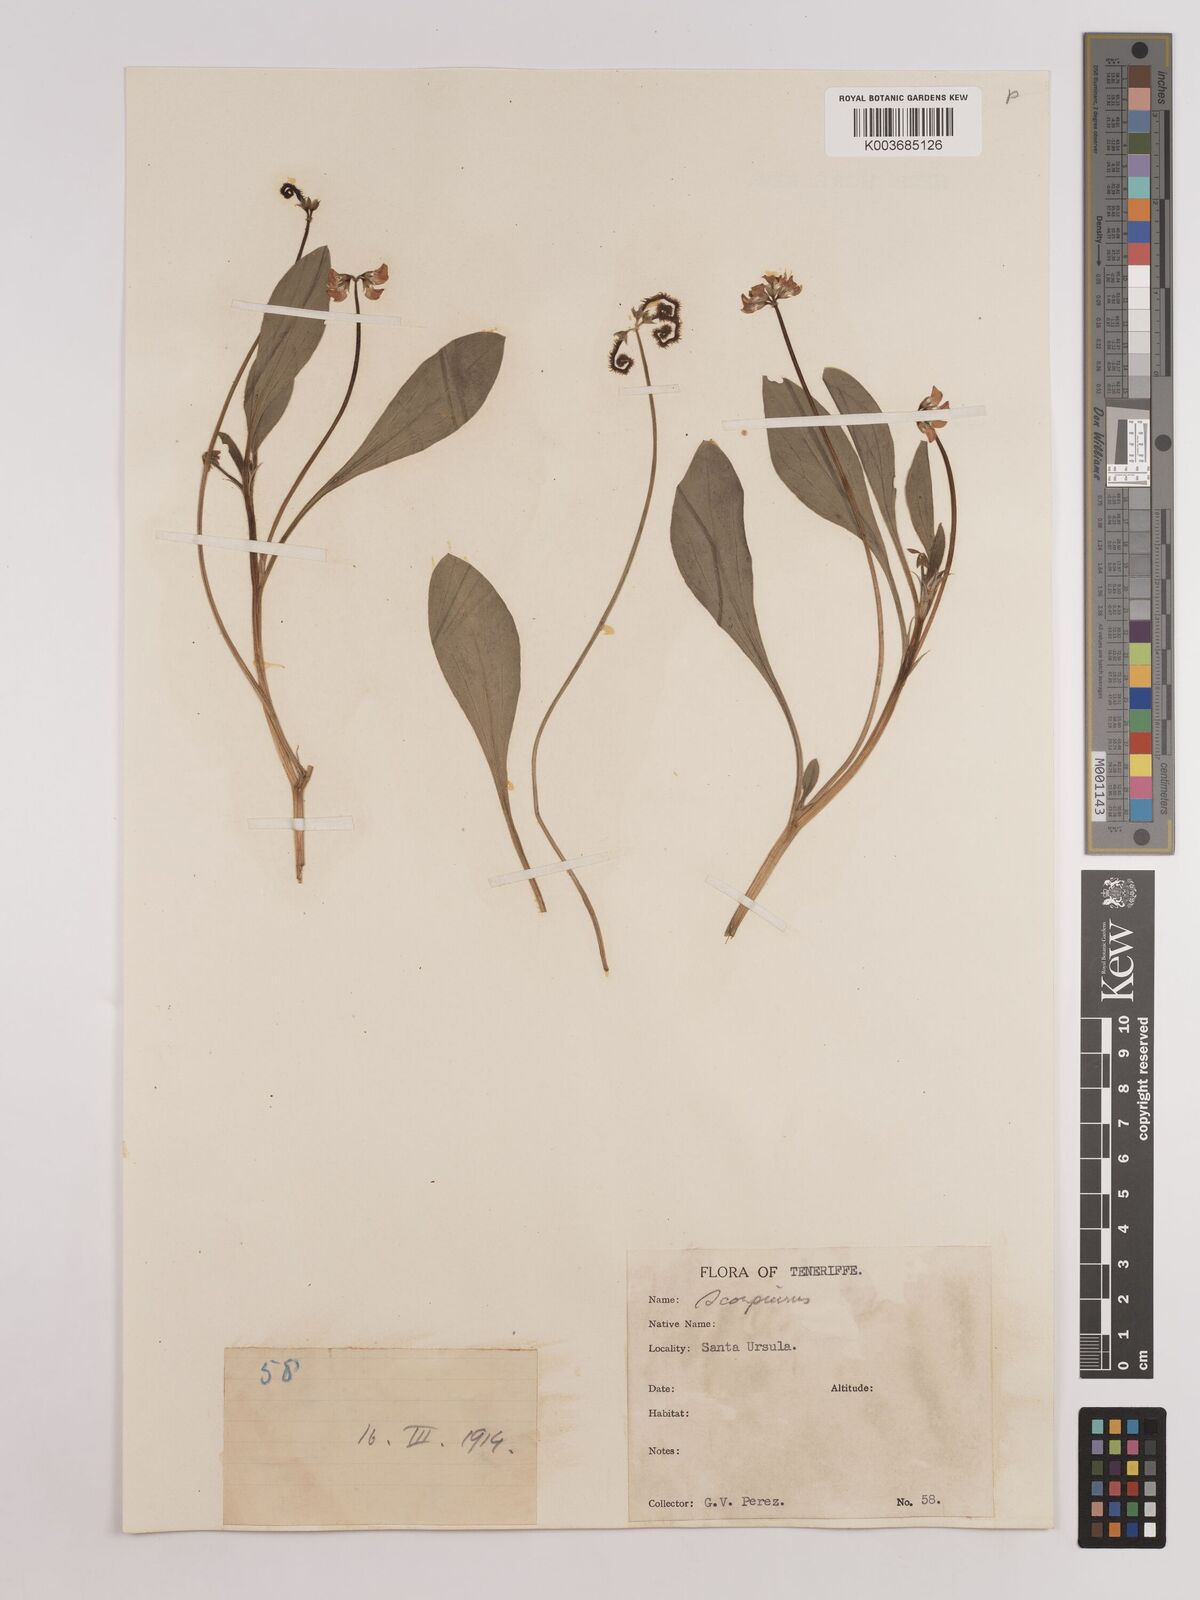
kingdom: Plantae
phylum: Tracheophyta
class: Magnoliopsida
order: Fabales
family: Fabaceae
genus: Scorpiurus
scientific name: Scorpiurus muricatus
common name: Caterpillar-plant
